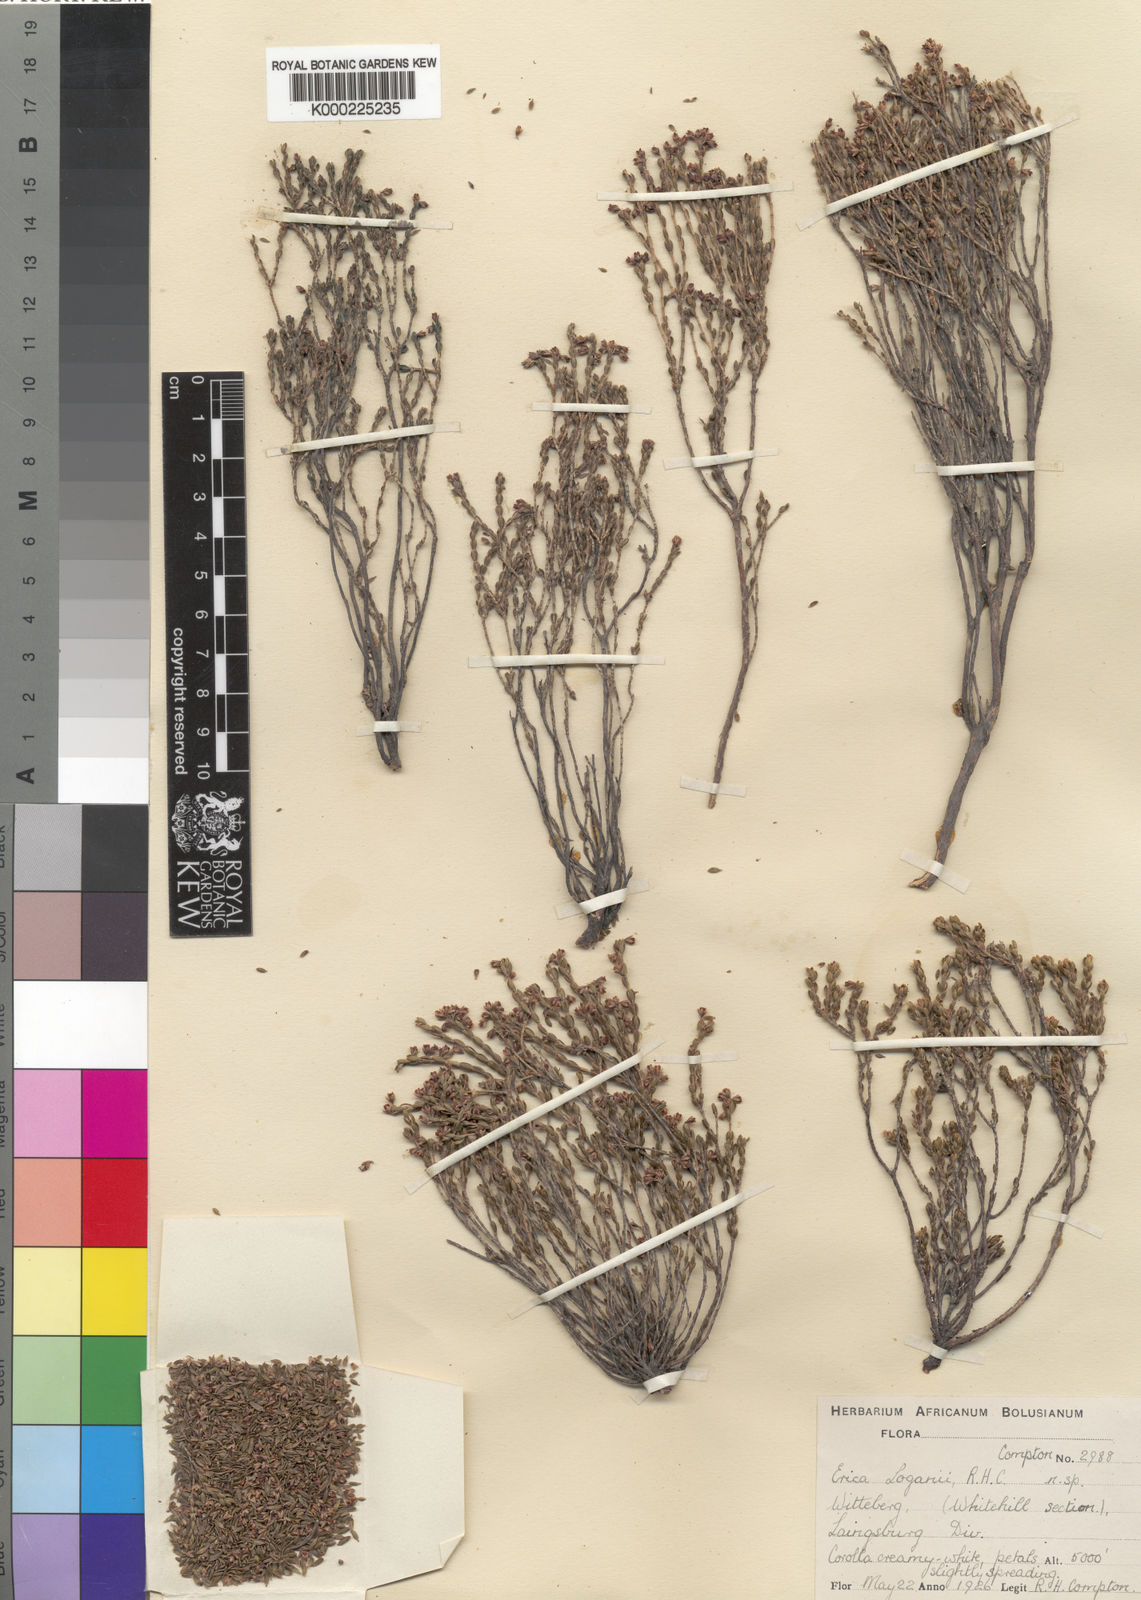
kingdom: Plantae
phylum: Tracheophyta
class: Magnoliopsida
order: Ericales
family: Ericaceae
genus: Erica
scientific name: Erica loganii
